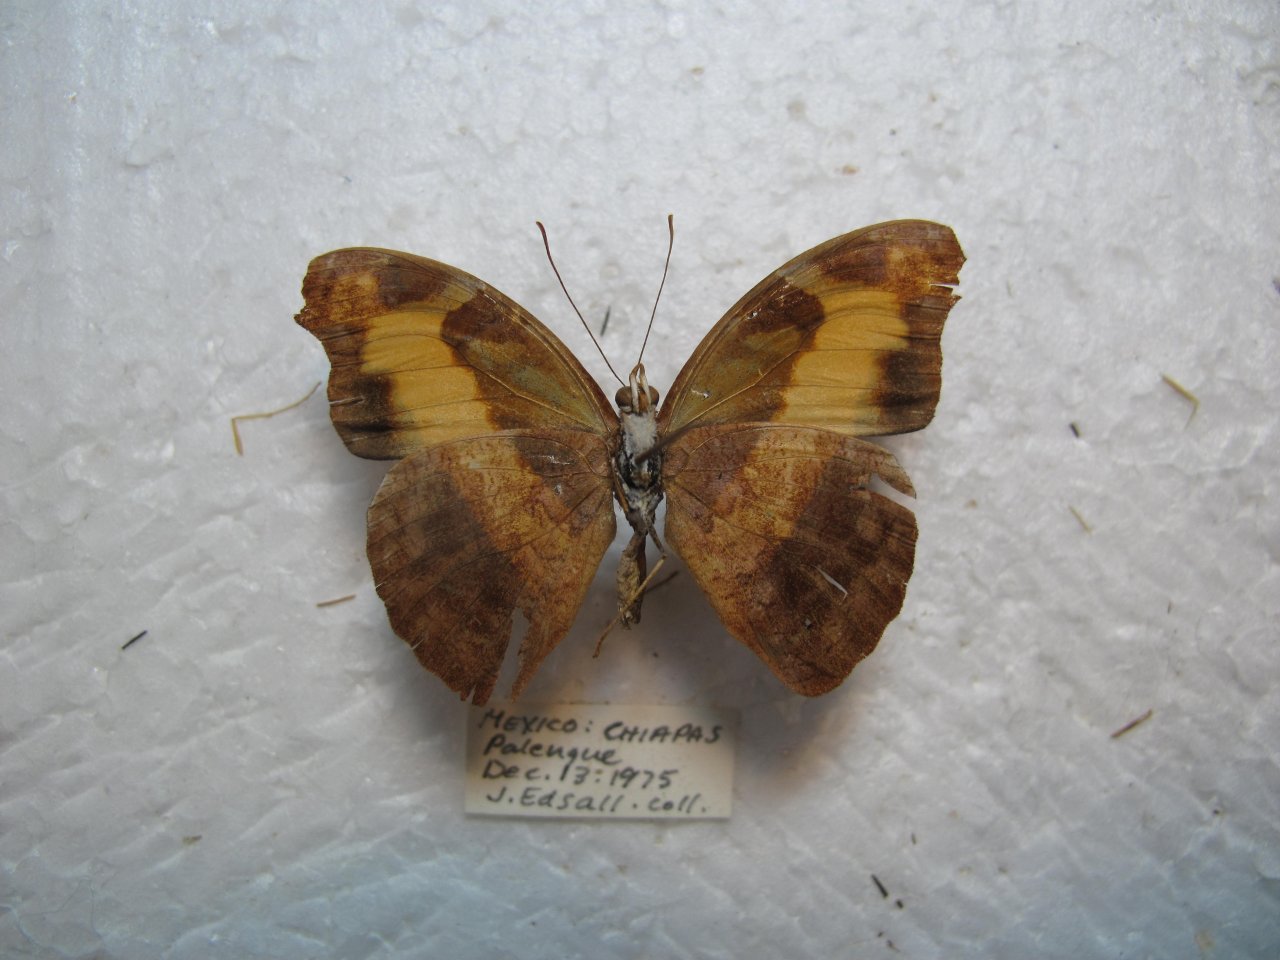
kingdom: Animalia
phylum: Arthropoda
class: Insecta
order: Lepidoptera
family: Nymphalidae
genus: Catonephele
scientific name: Catonephele mexicana
